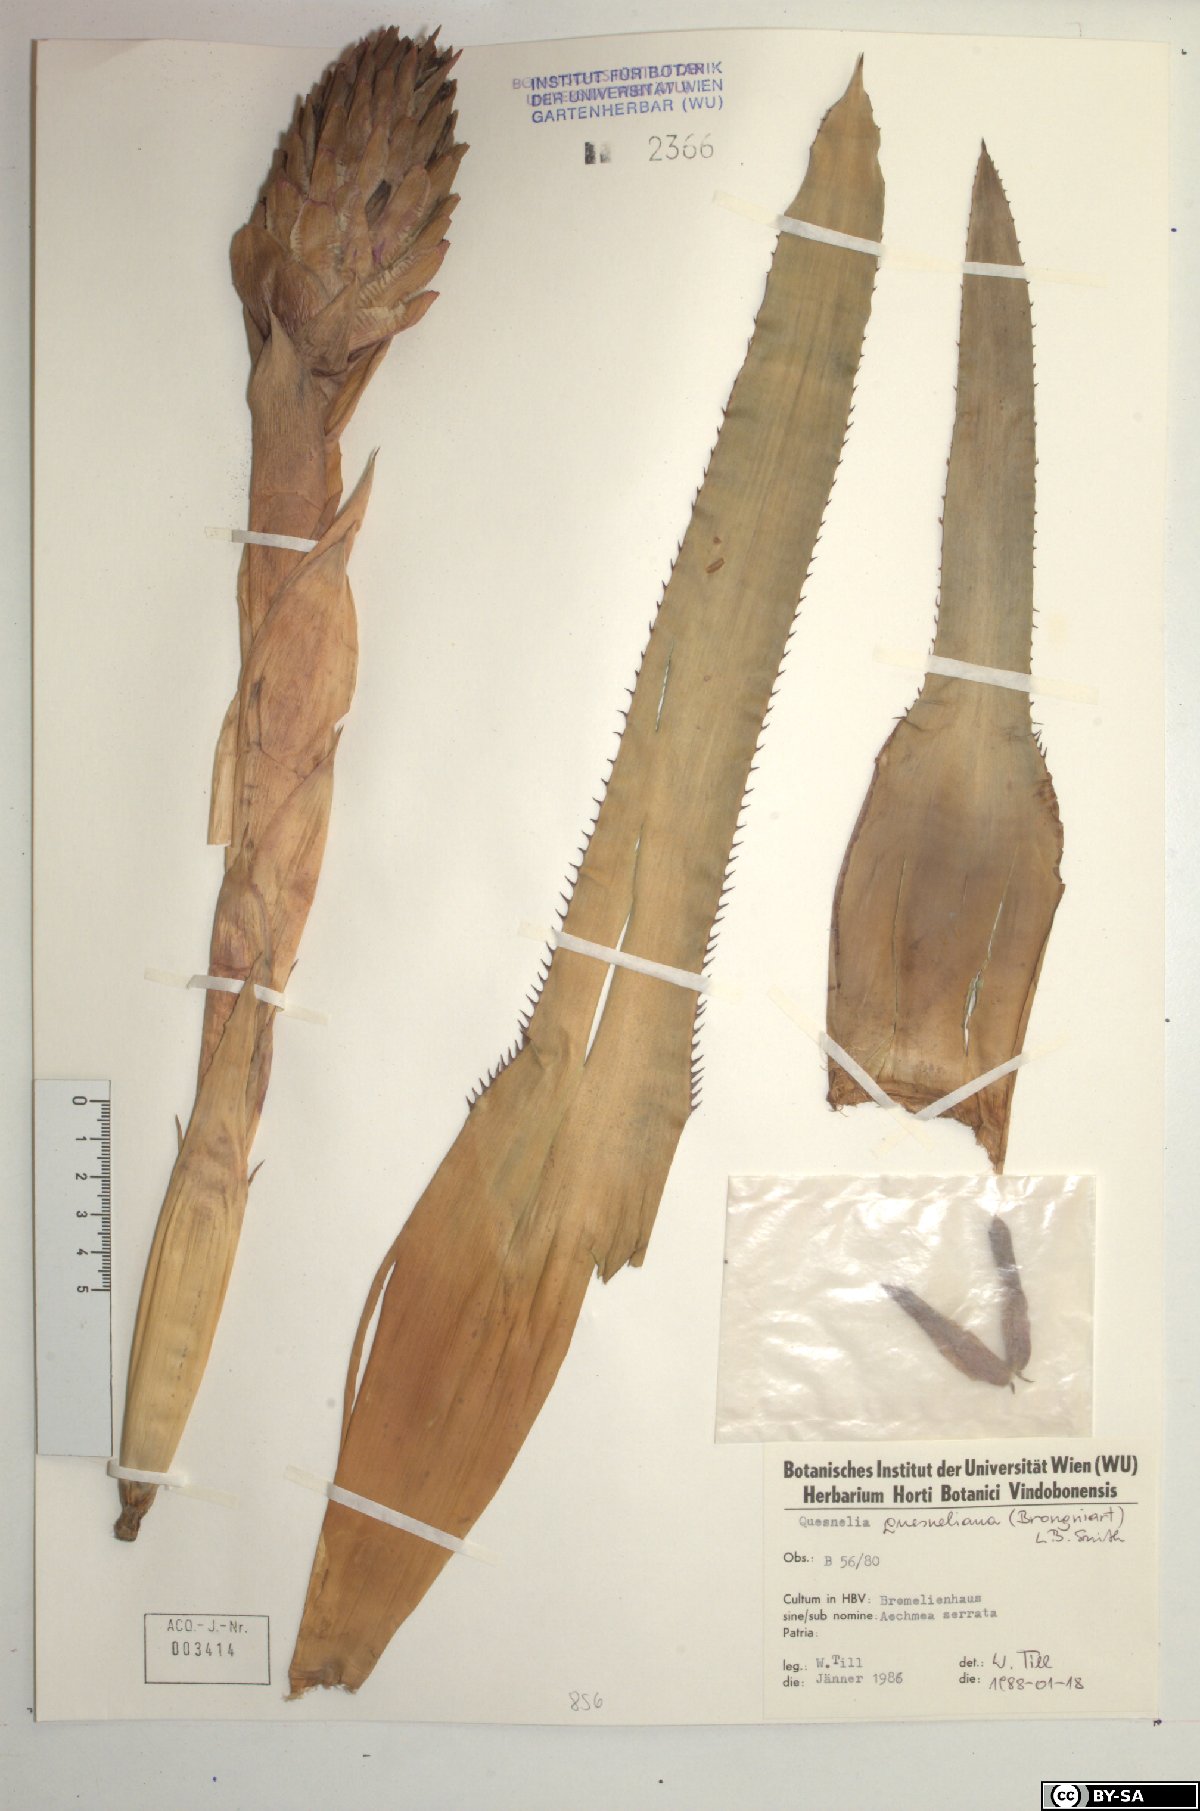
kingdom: Plantae
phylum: Tracheophyta
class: Liliopsida
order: Poales
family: Bromeliaceae
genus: Quesnelia
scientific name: Quesnelia quesneliana
